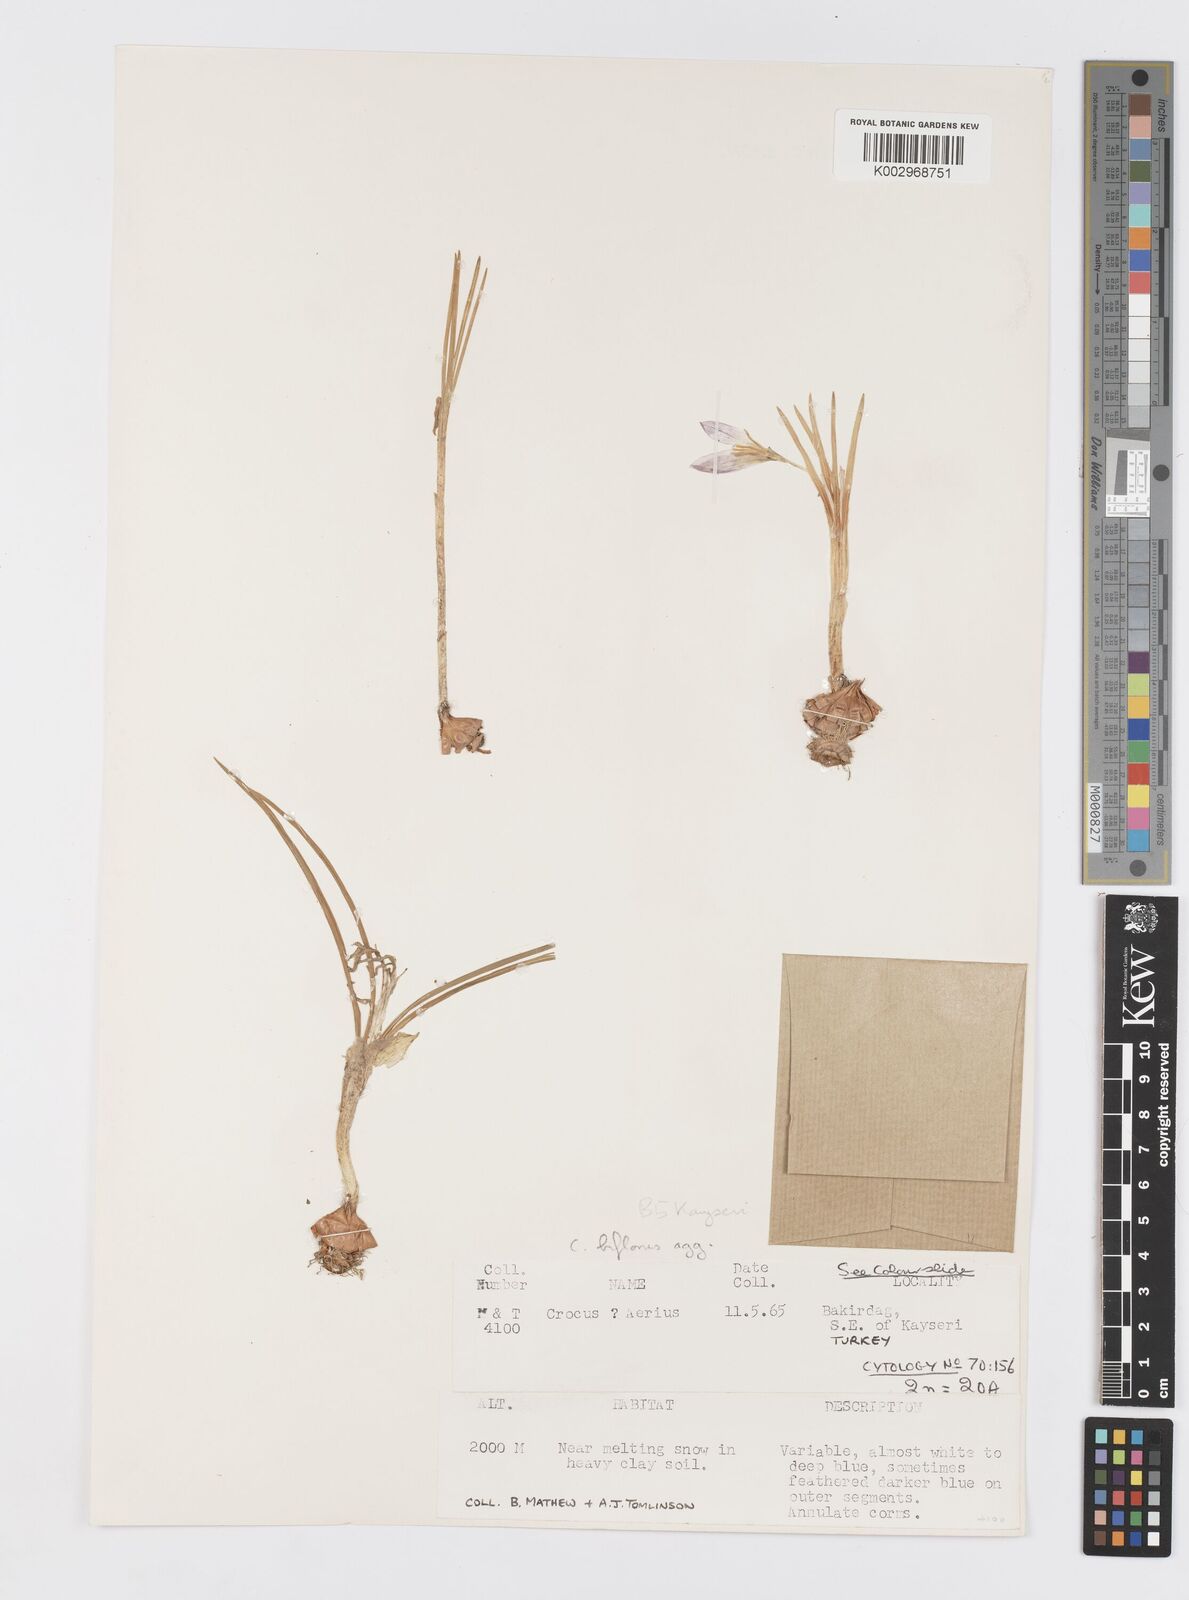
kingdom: Plantae
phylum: Tracheophyta
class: Liliopsida
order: Asparagales
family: Iridaceae
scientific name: Iridaceae
